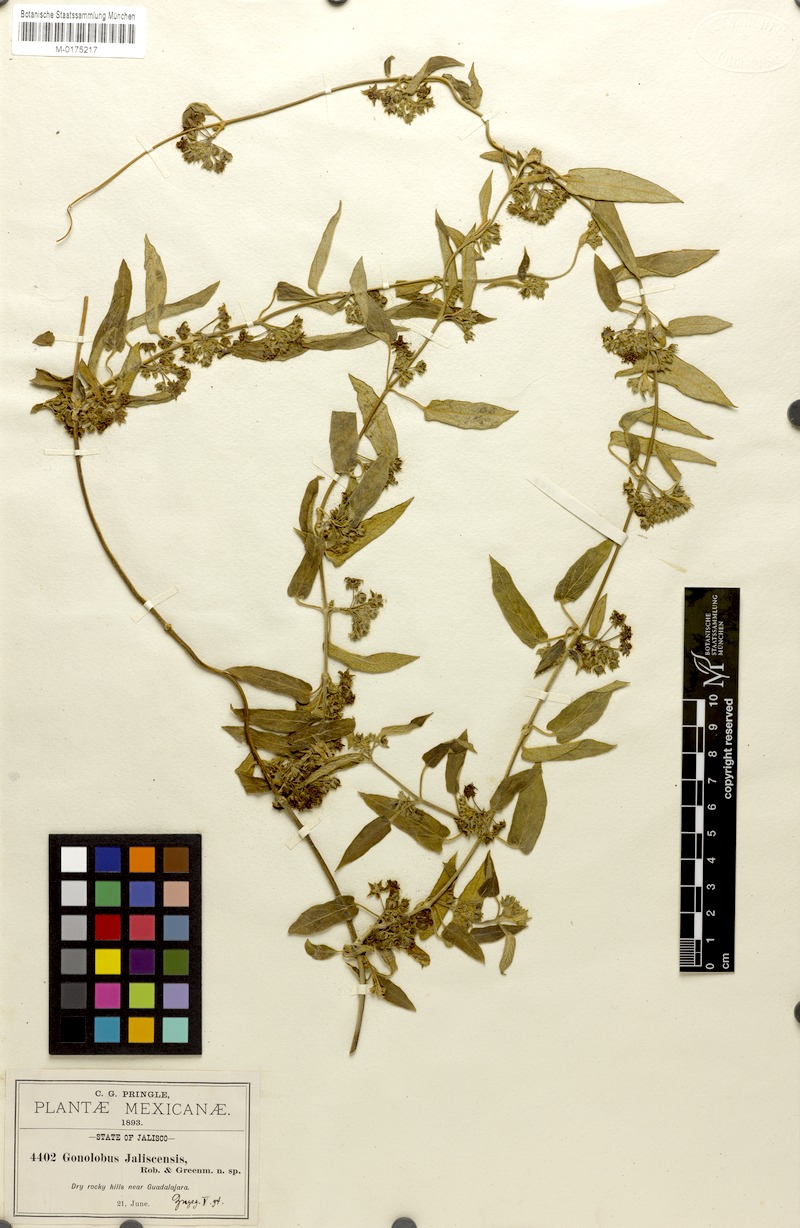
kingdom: Plantae
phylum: Tracheophyta
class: Magnoliopsida
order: Gentianales
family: Apocynaceae
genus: Gonolobus
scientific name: Gonolobus jaliscensis
